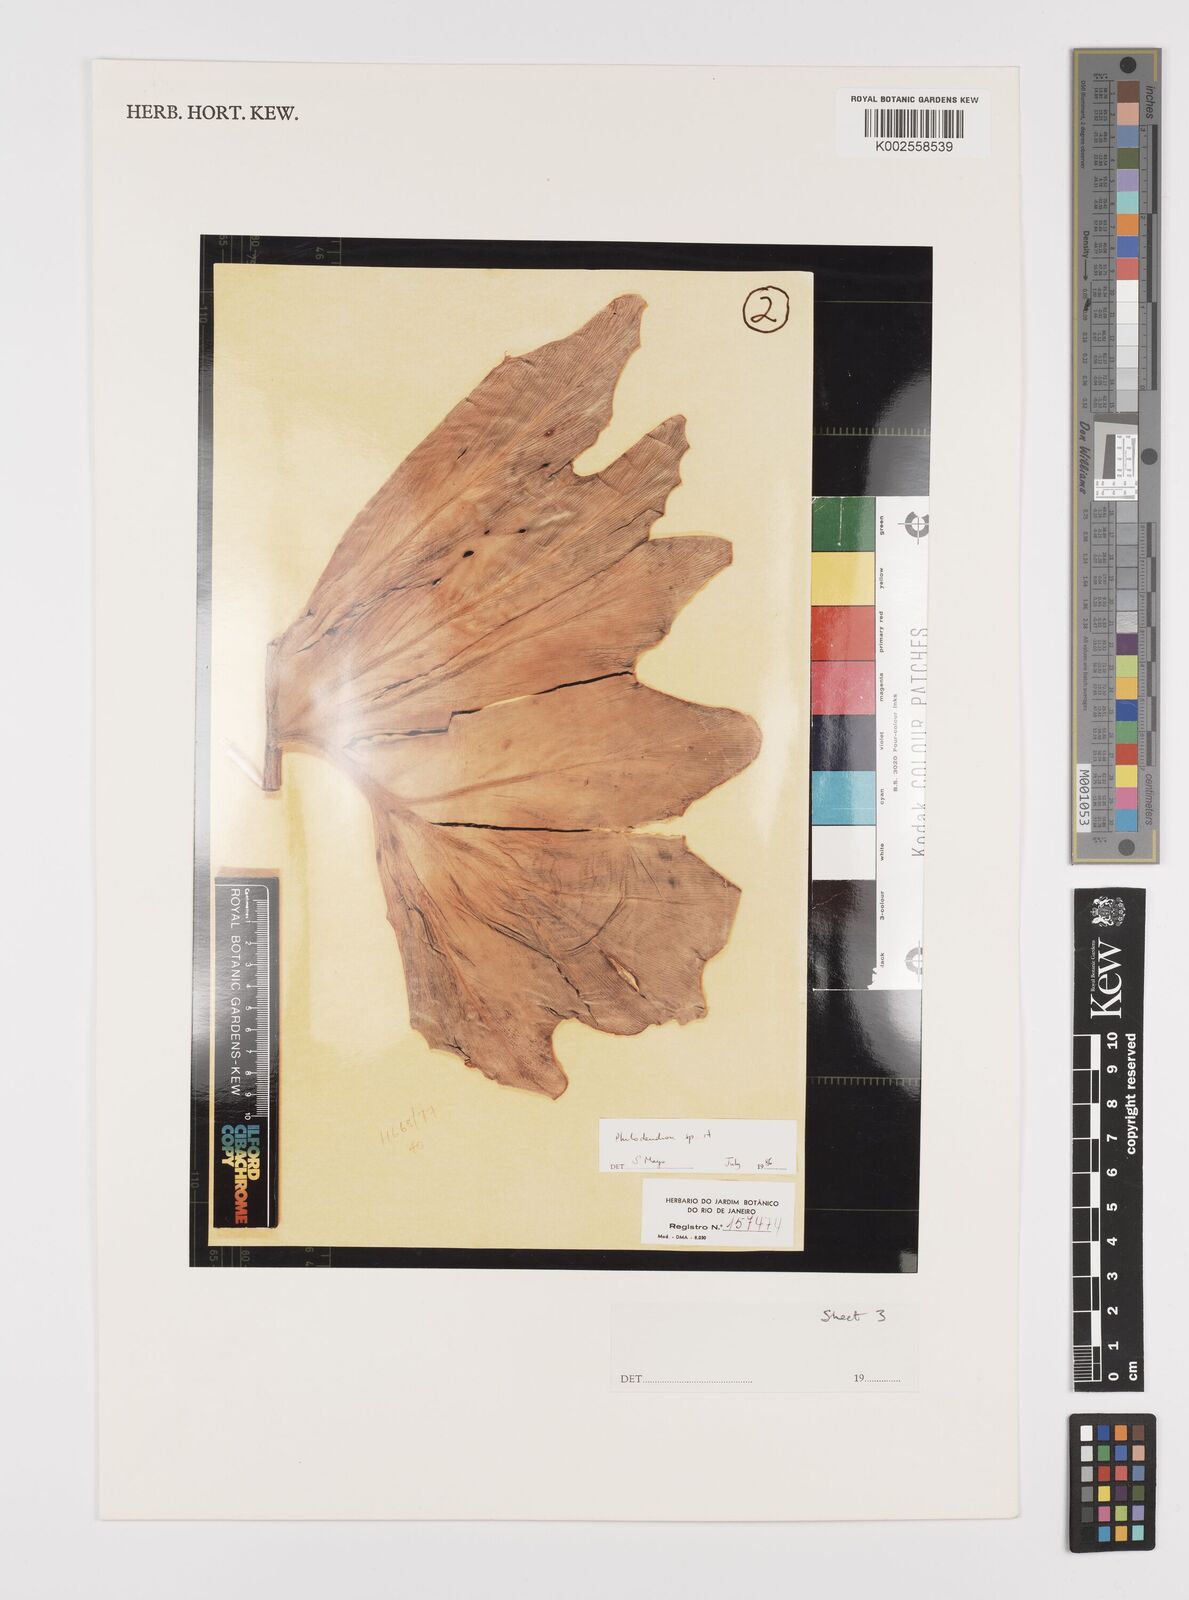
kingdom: Plantae
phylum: Tracheophyta
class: Liliopsida
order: Alismatales
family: Araceae
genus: Philodendron
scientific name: Philodendron
